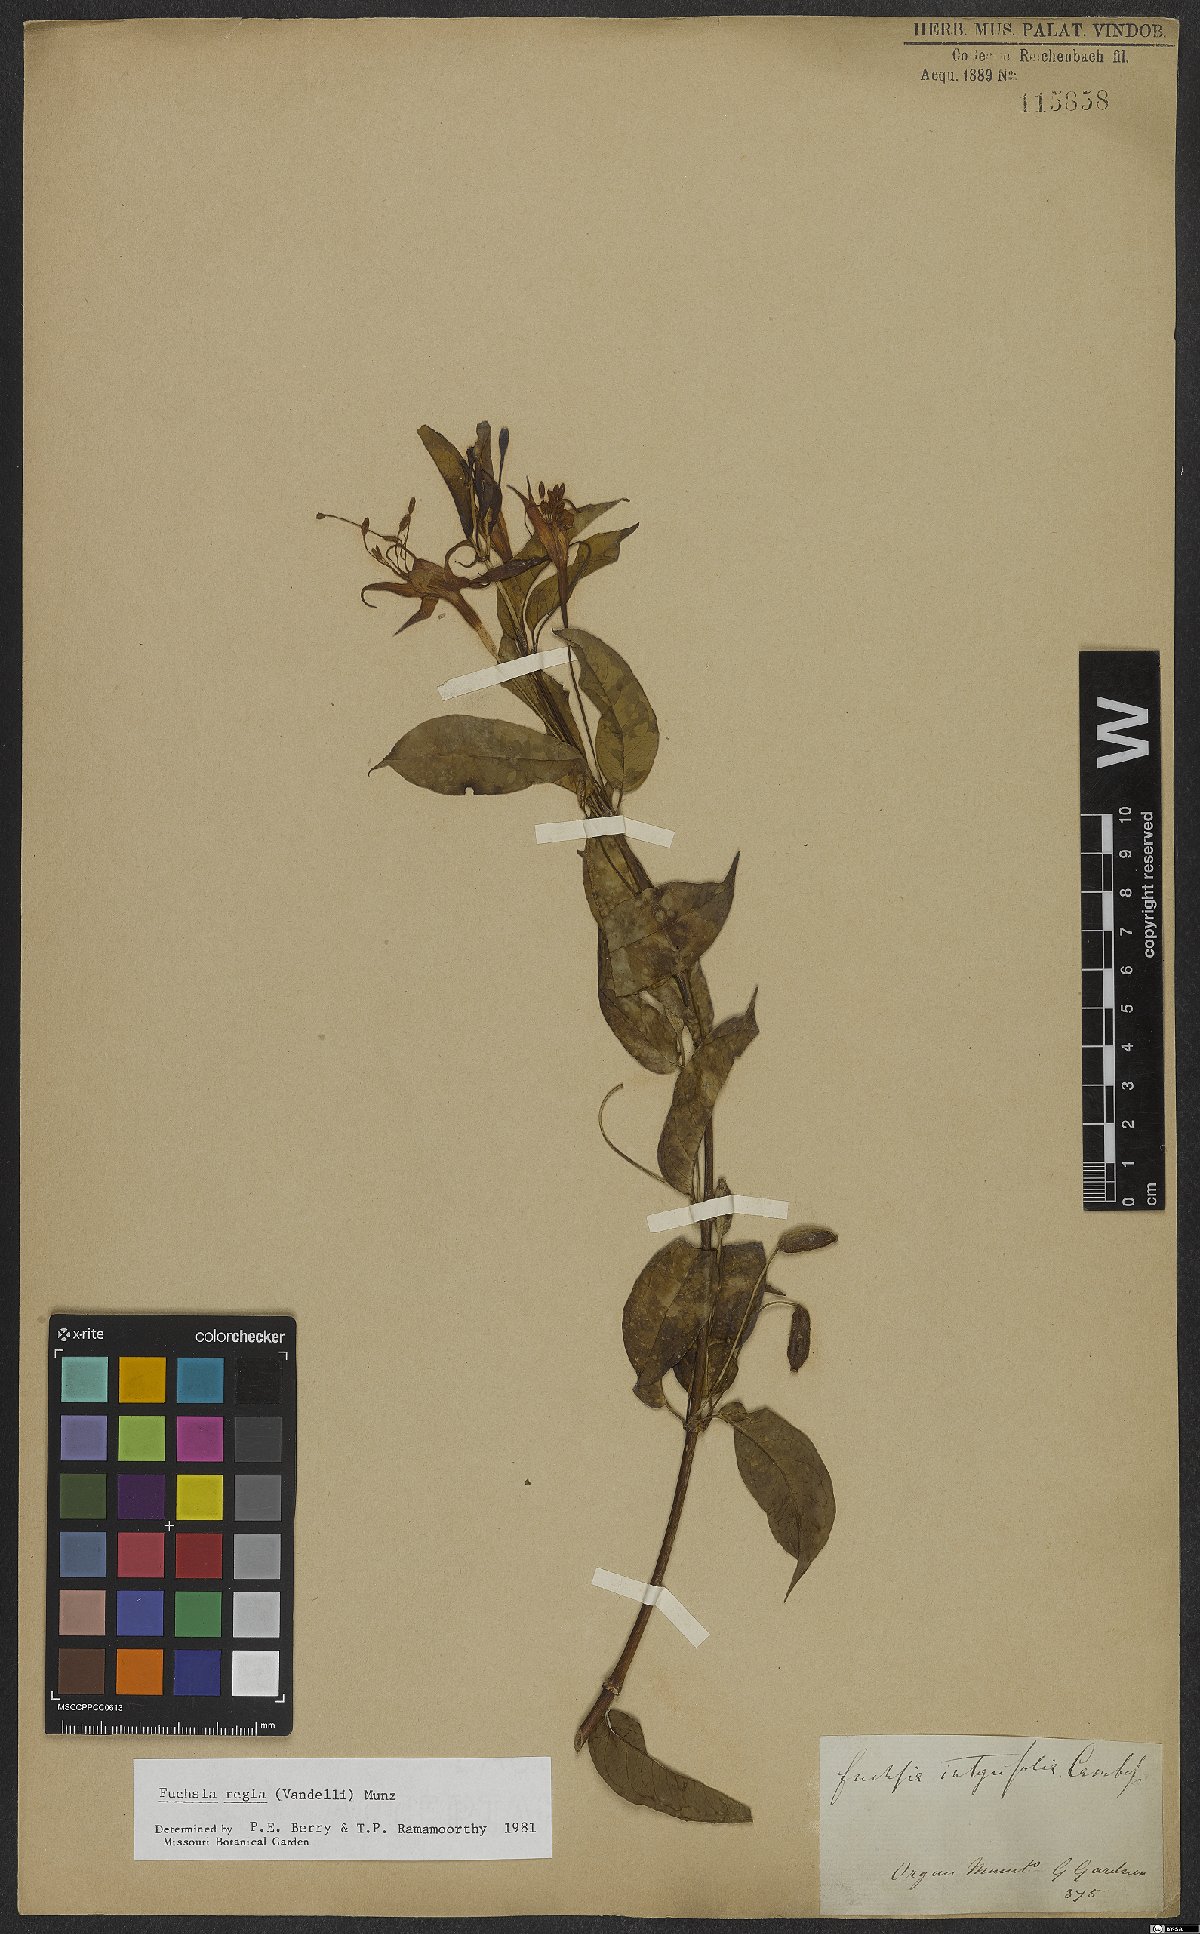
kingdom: Plantae
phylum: Tracheophyta
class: Magnoliopsida
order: Myrtales
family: Onagraceae
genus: Fuchsia
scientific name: Fuchsia regia
